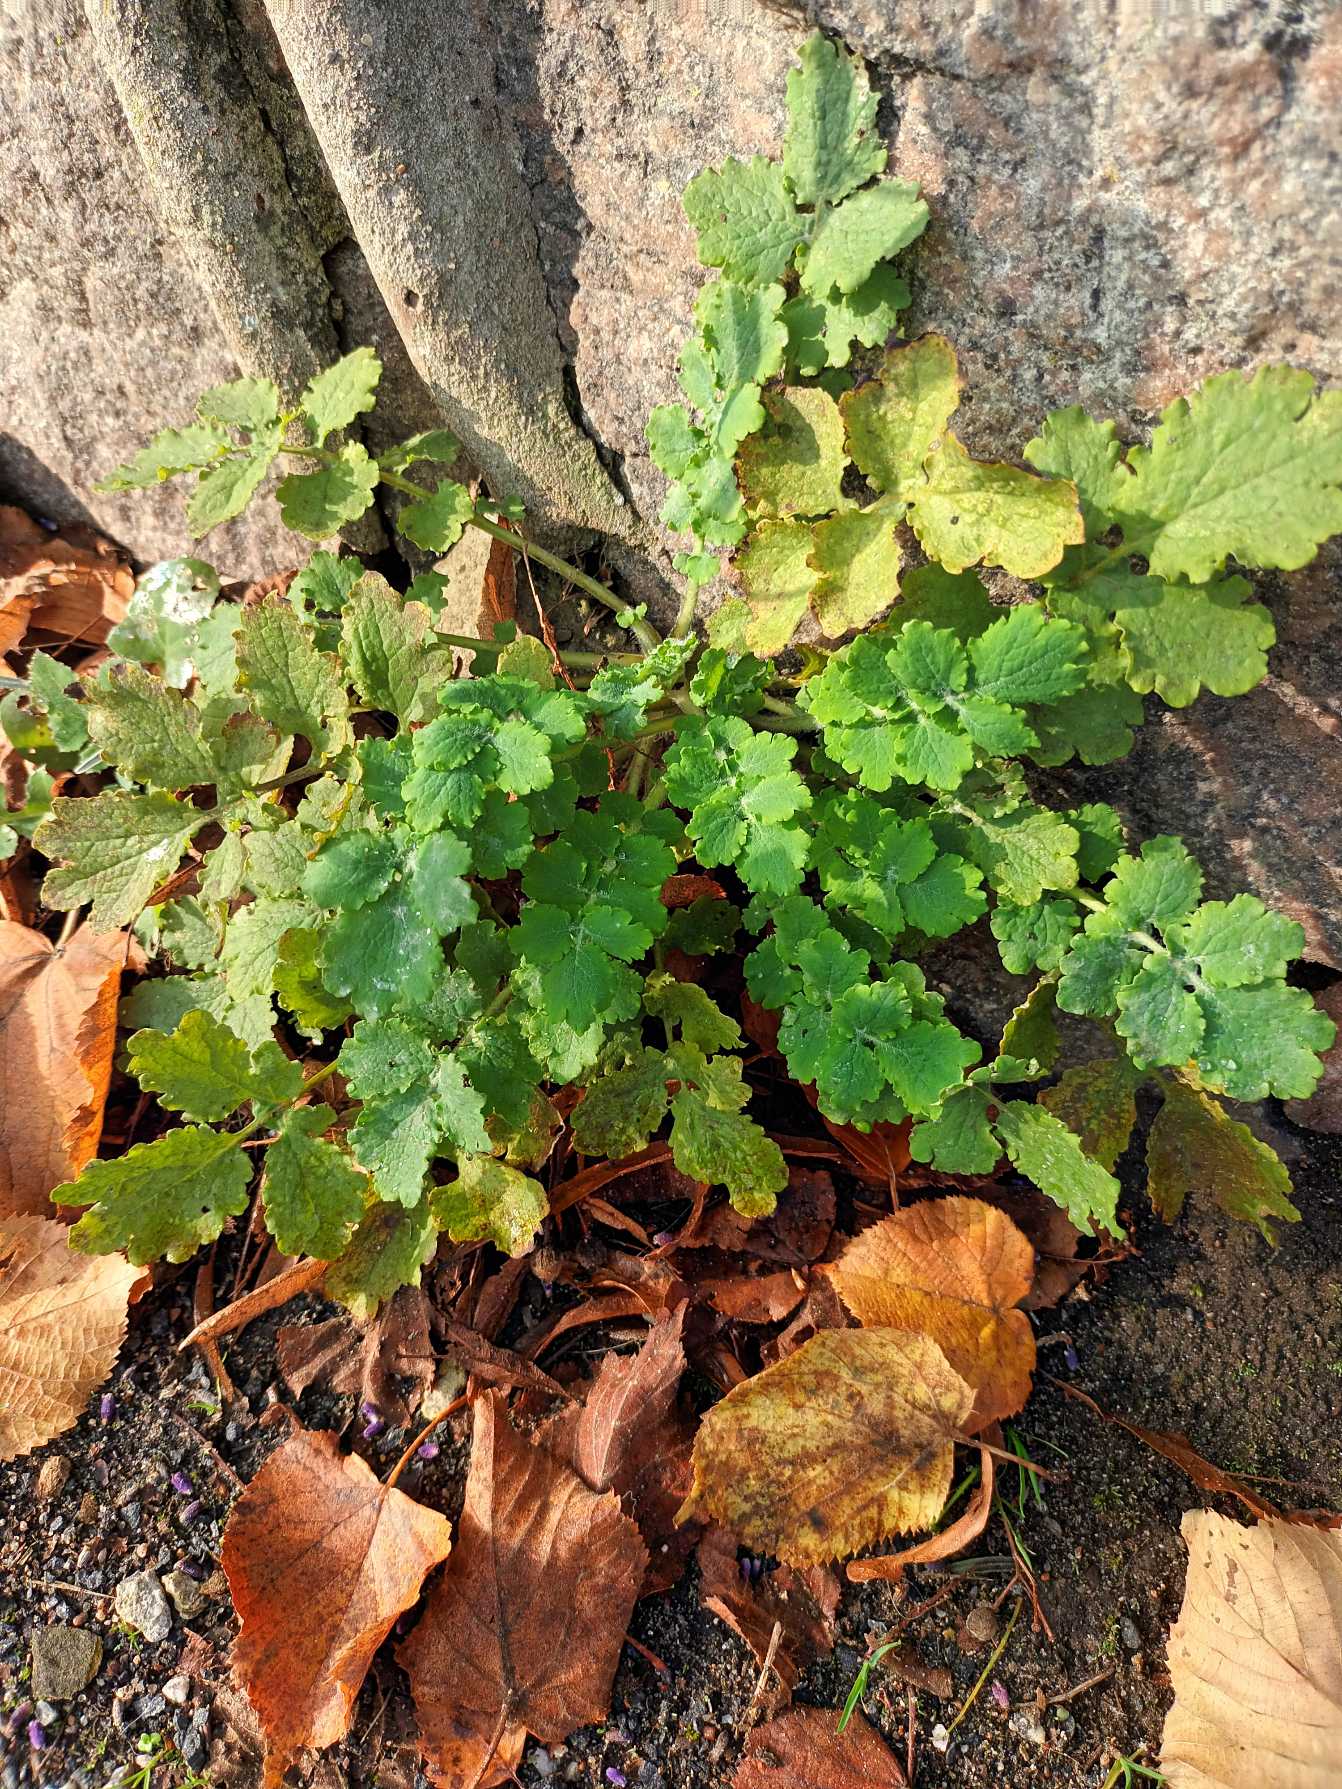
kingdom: Plantae
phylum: Tracheophyta
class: Magnoliopsida
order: Ranunculales
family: Papaveraceae
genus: Chelidonium
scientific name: Chelidonium majus
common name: Svaleurt
